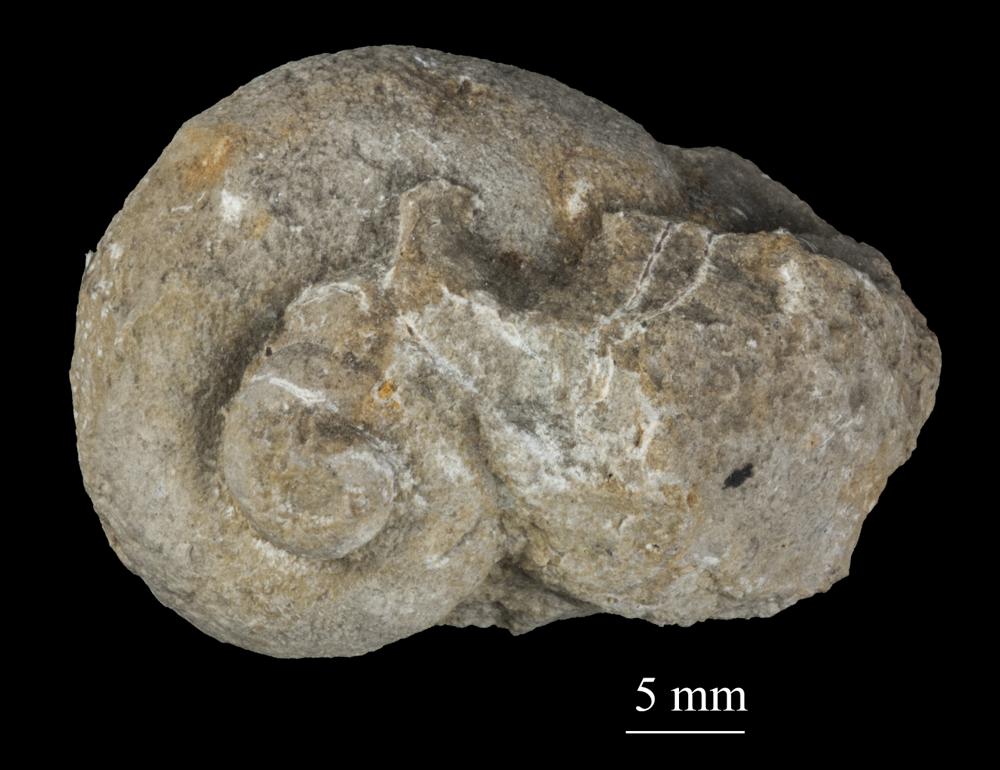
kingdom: Animalia
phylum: Mollusca
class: Gastropoda
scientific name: Gastropoda
